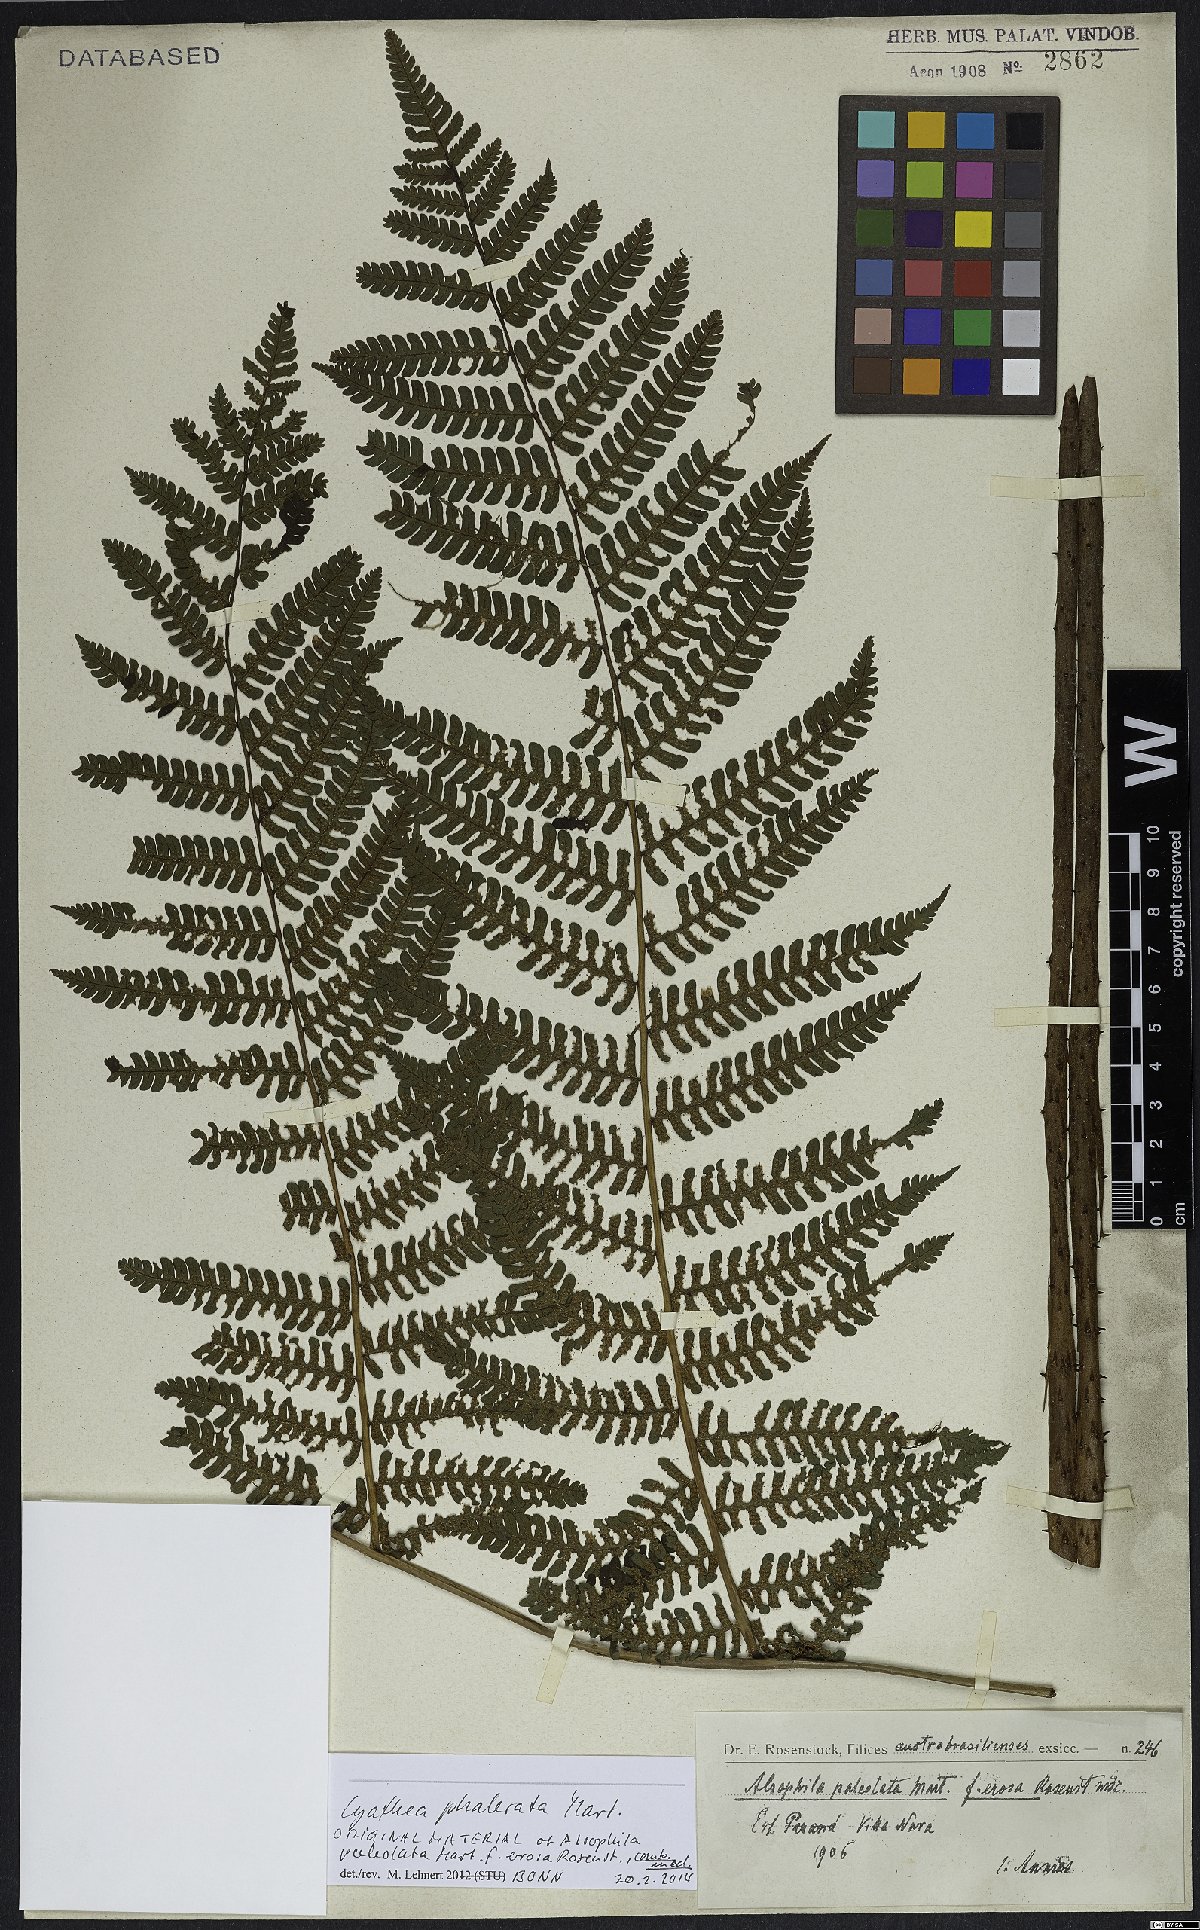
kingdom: Plantae
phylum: Tracheophyta
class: Polypodiopsida
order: Cyatheales
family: Cyatheaceae
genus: Cyathea
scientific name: Cyathea phalerata
